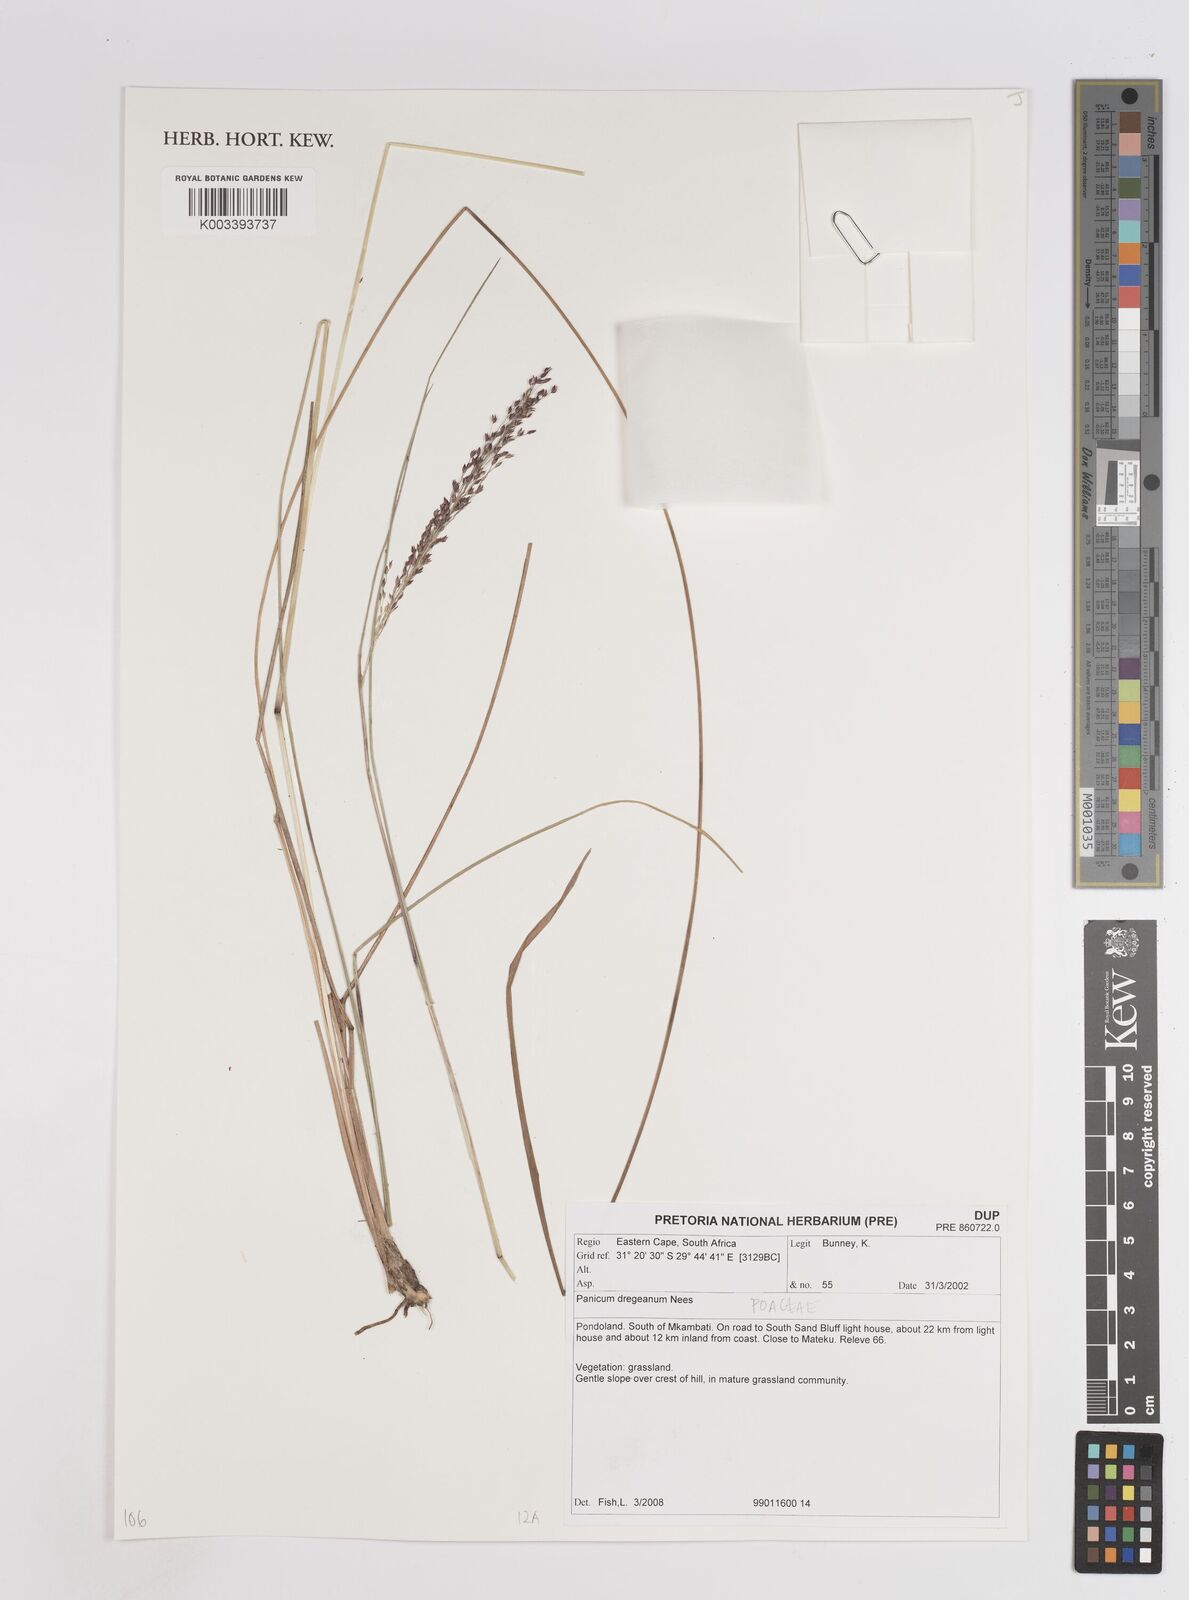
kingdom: Plantae
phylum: Tracheophyta
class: Liliopsida
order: Poales
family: Poaceae
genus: Panicum
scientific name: Panicum dregeanum
